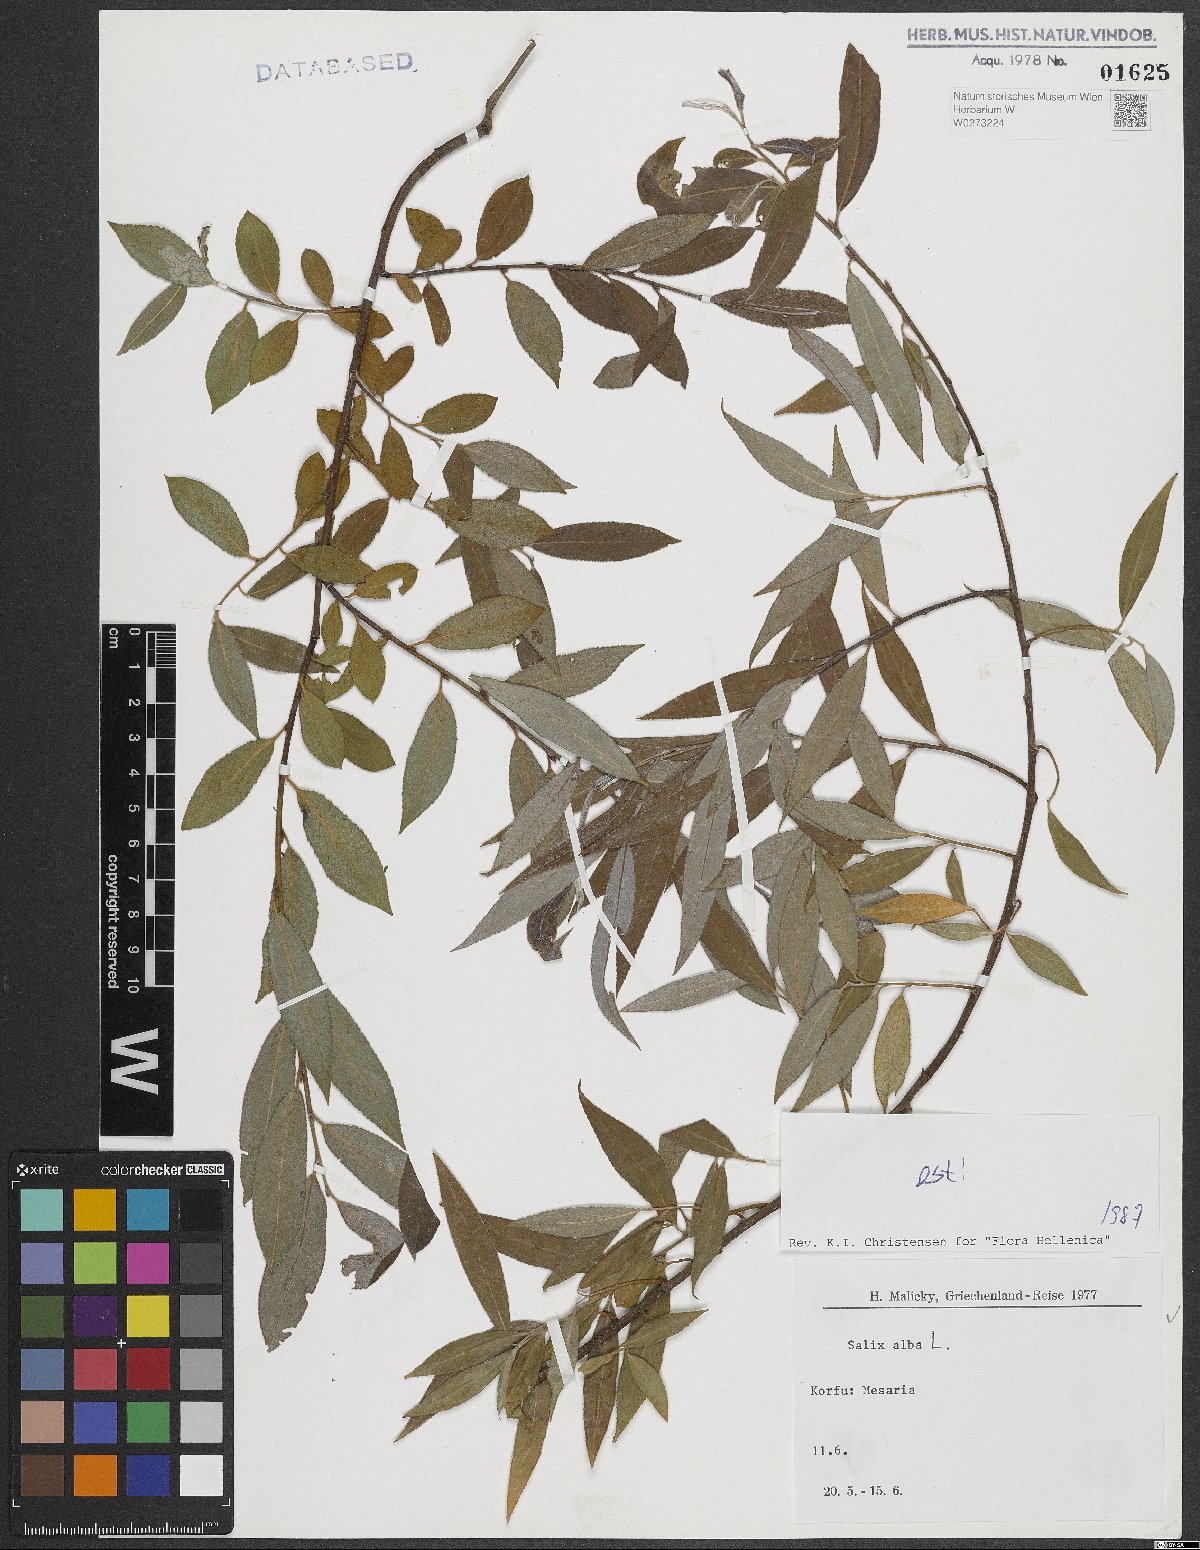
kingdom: Plantae
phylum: Tracheophyta
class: Magnoliopsida
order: Malpighiales
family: Salicaceae
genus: Salix
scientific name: Salix alba
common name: White willow
